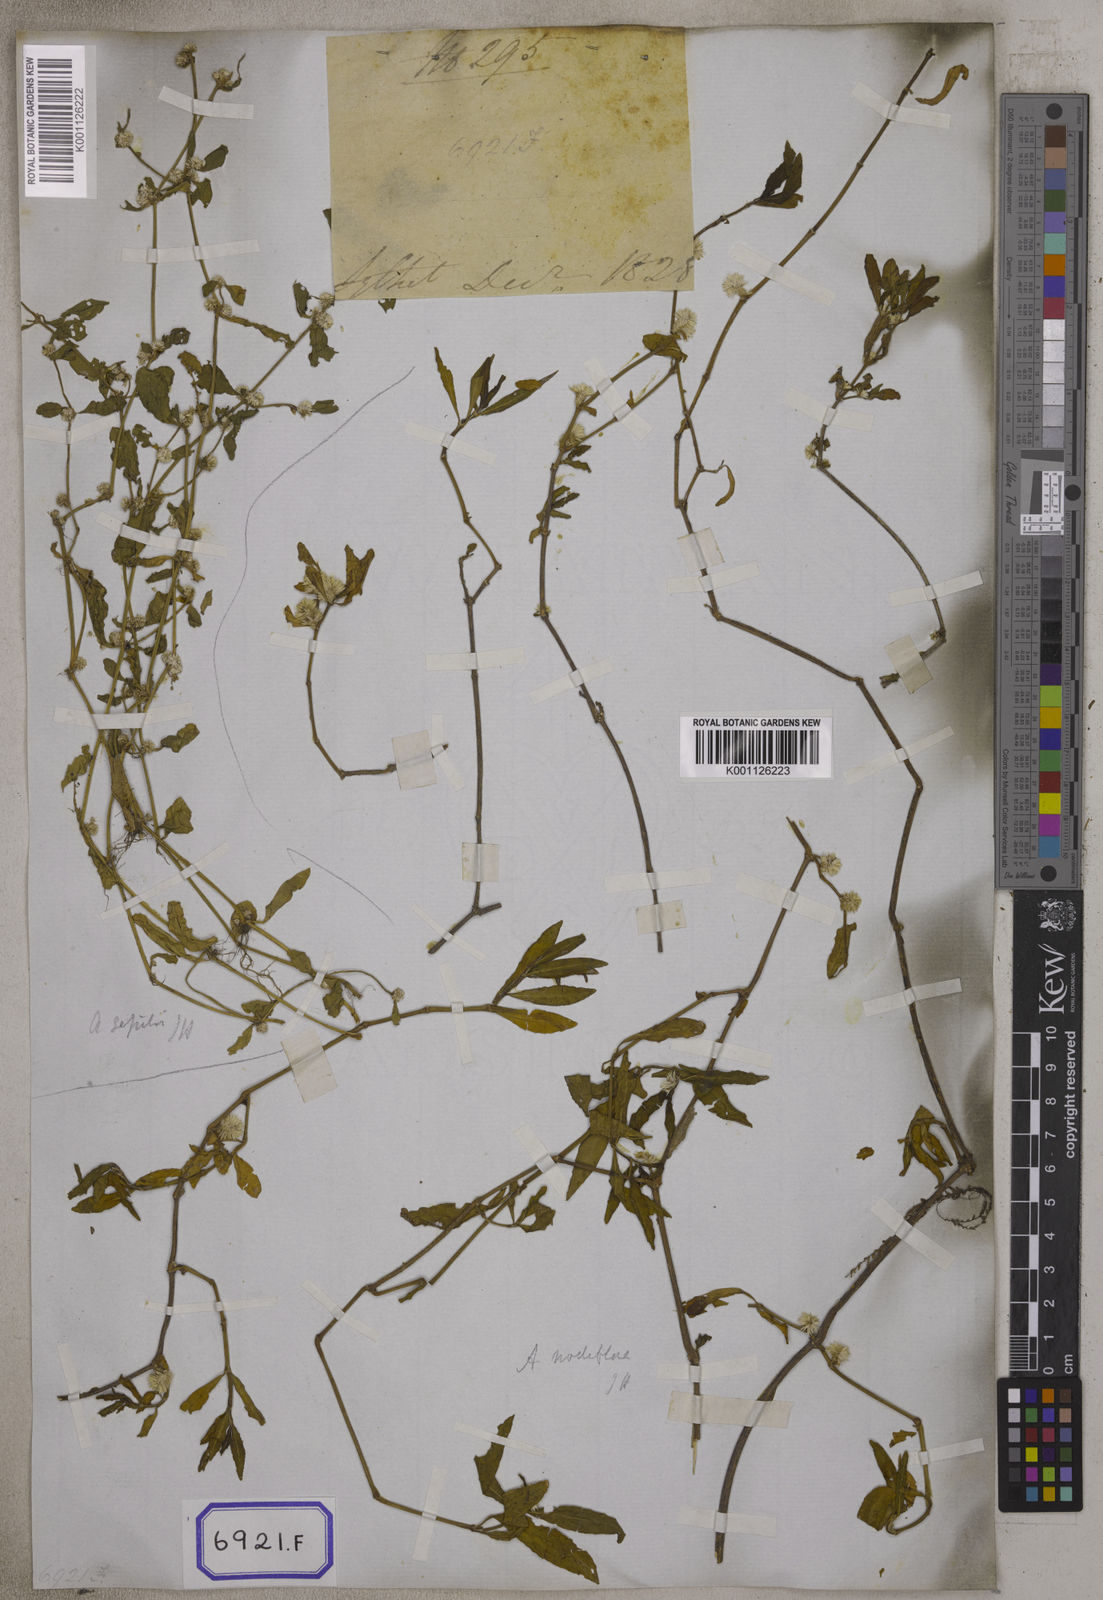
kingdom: Plantae
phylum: Tracheophyta
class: Magnoliopsida
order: Caryophyllales
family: Amaranthaceae
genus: Alternanthera
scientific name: Alternanthera
